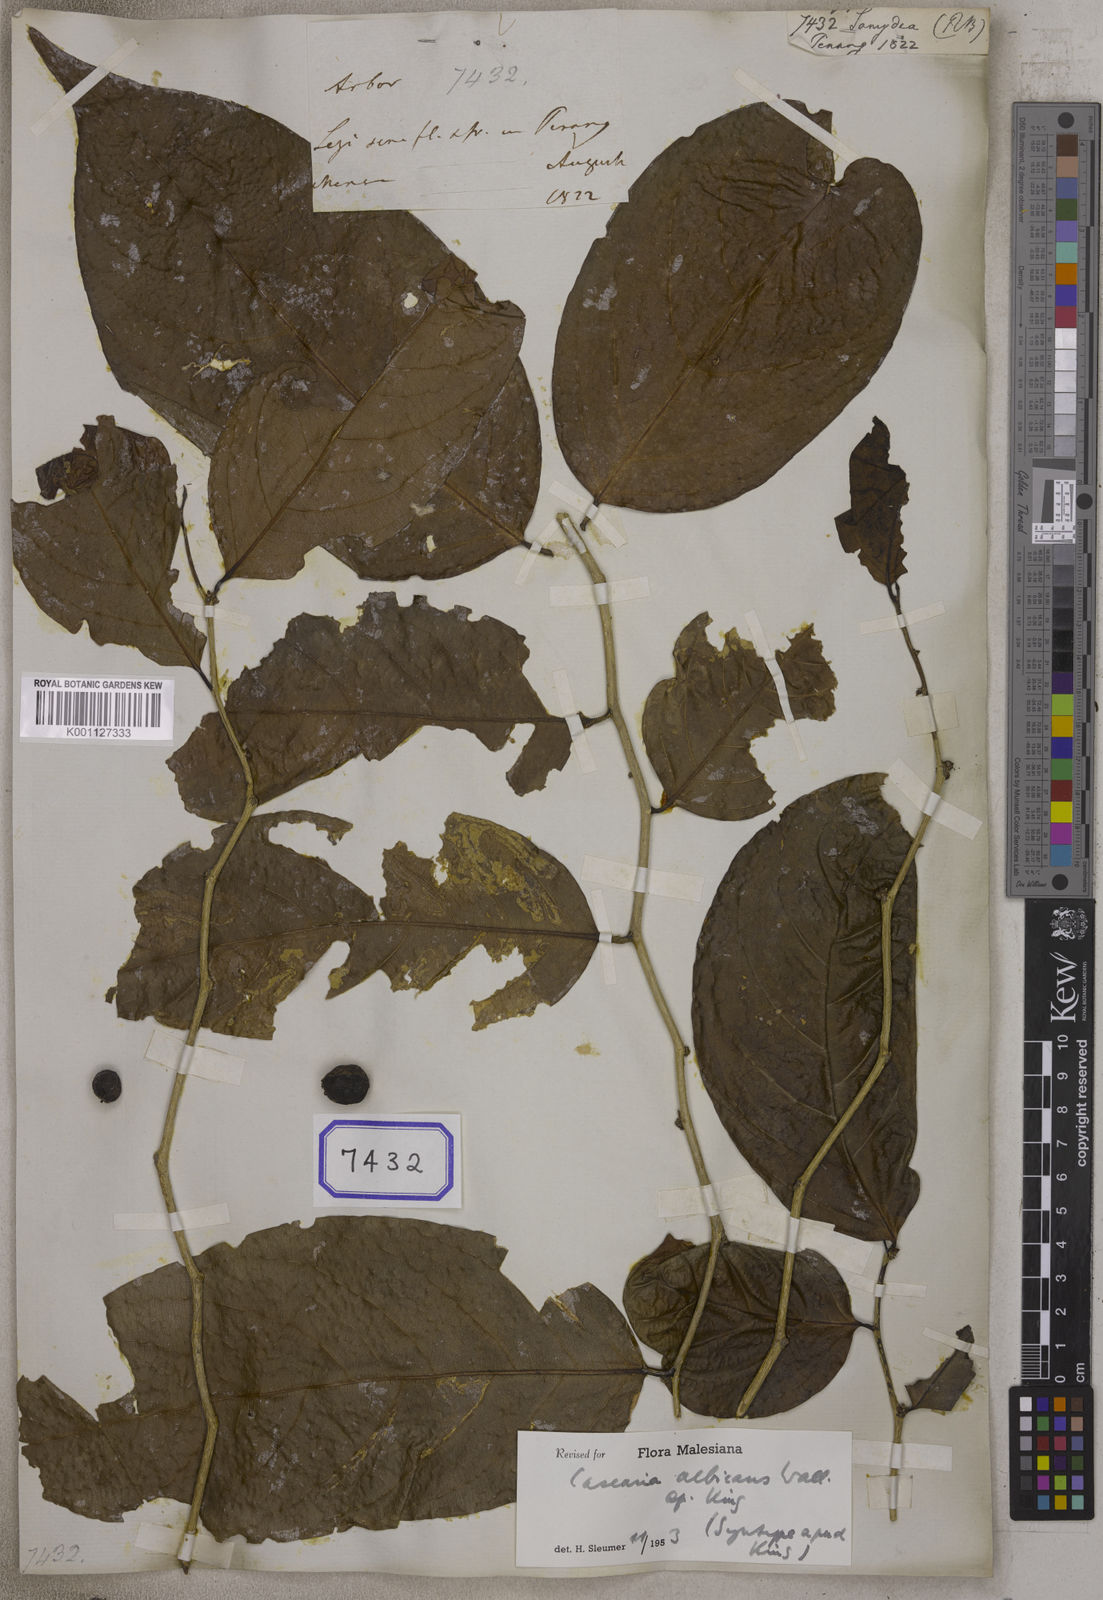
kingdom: Plantae
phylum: Tracheophyta
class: Magnoliopsida
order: Sapindales
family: Meliaceae
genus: Guarea
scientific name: Guarea
